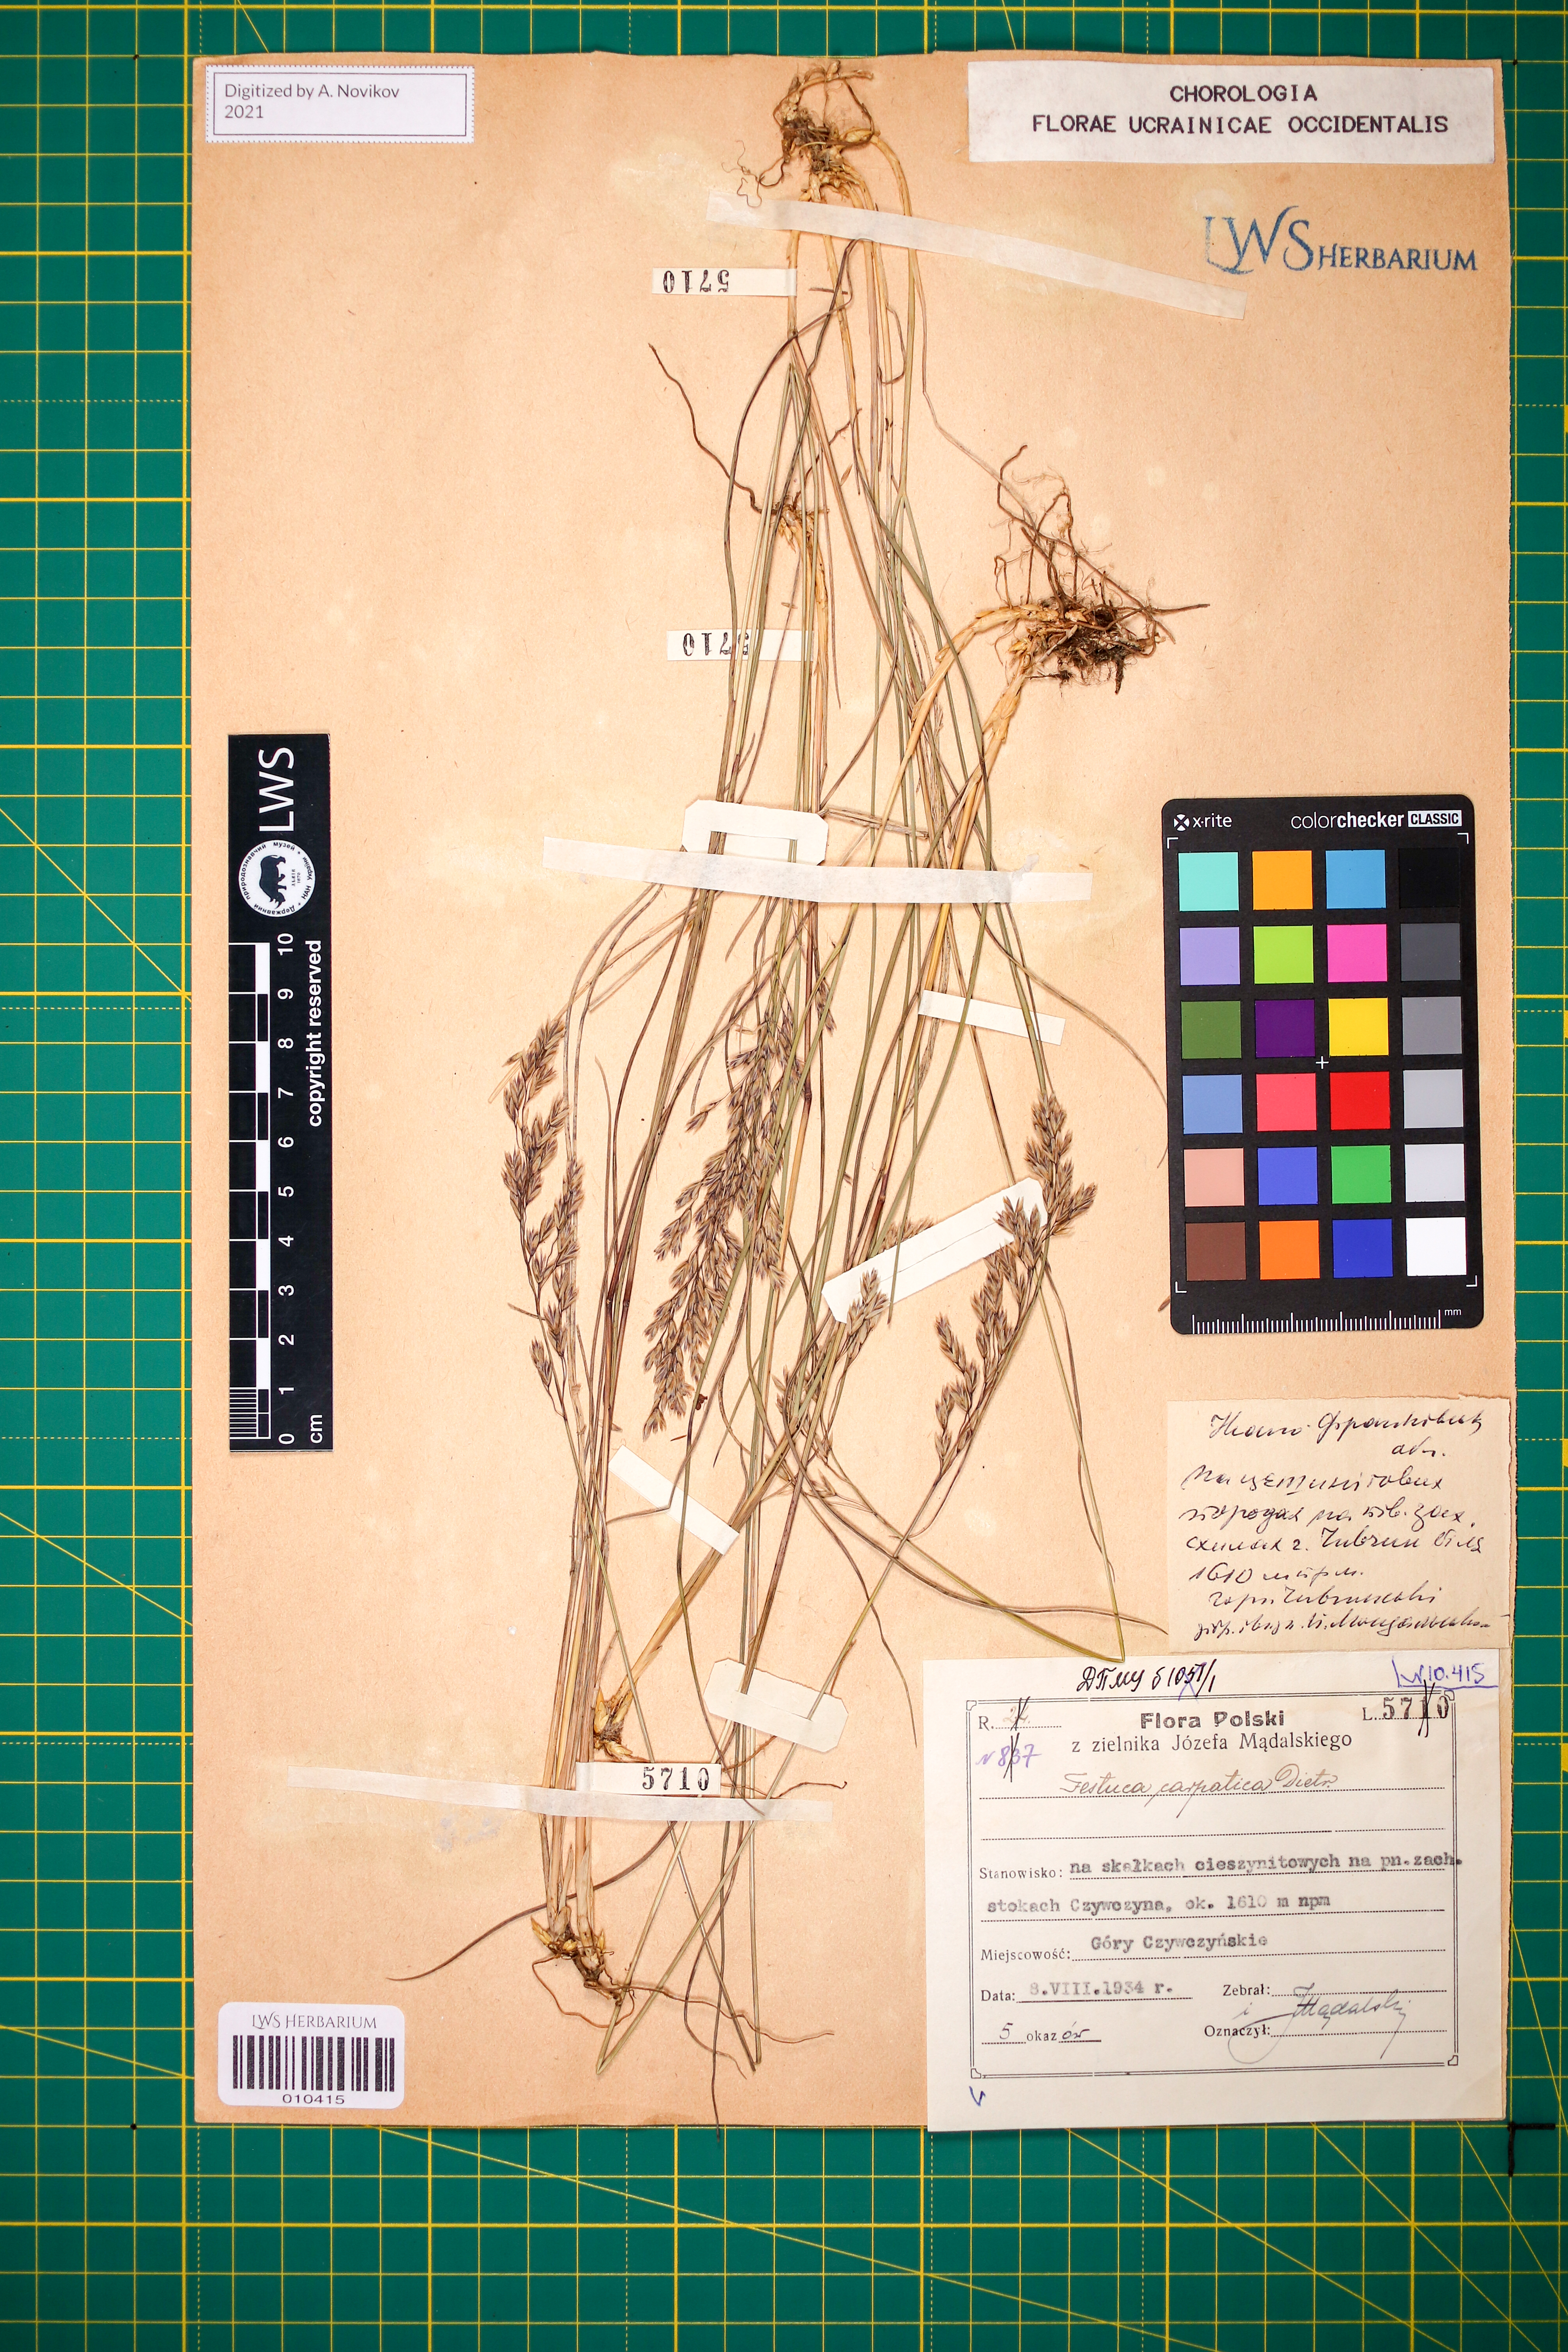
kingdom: Plantae
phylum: Tracheophyta
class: Liliopsida
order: Poales
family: Poaceae
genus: Festuca
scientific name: Festuca carpatica
